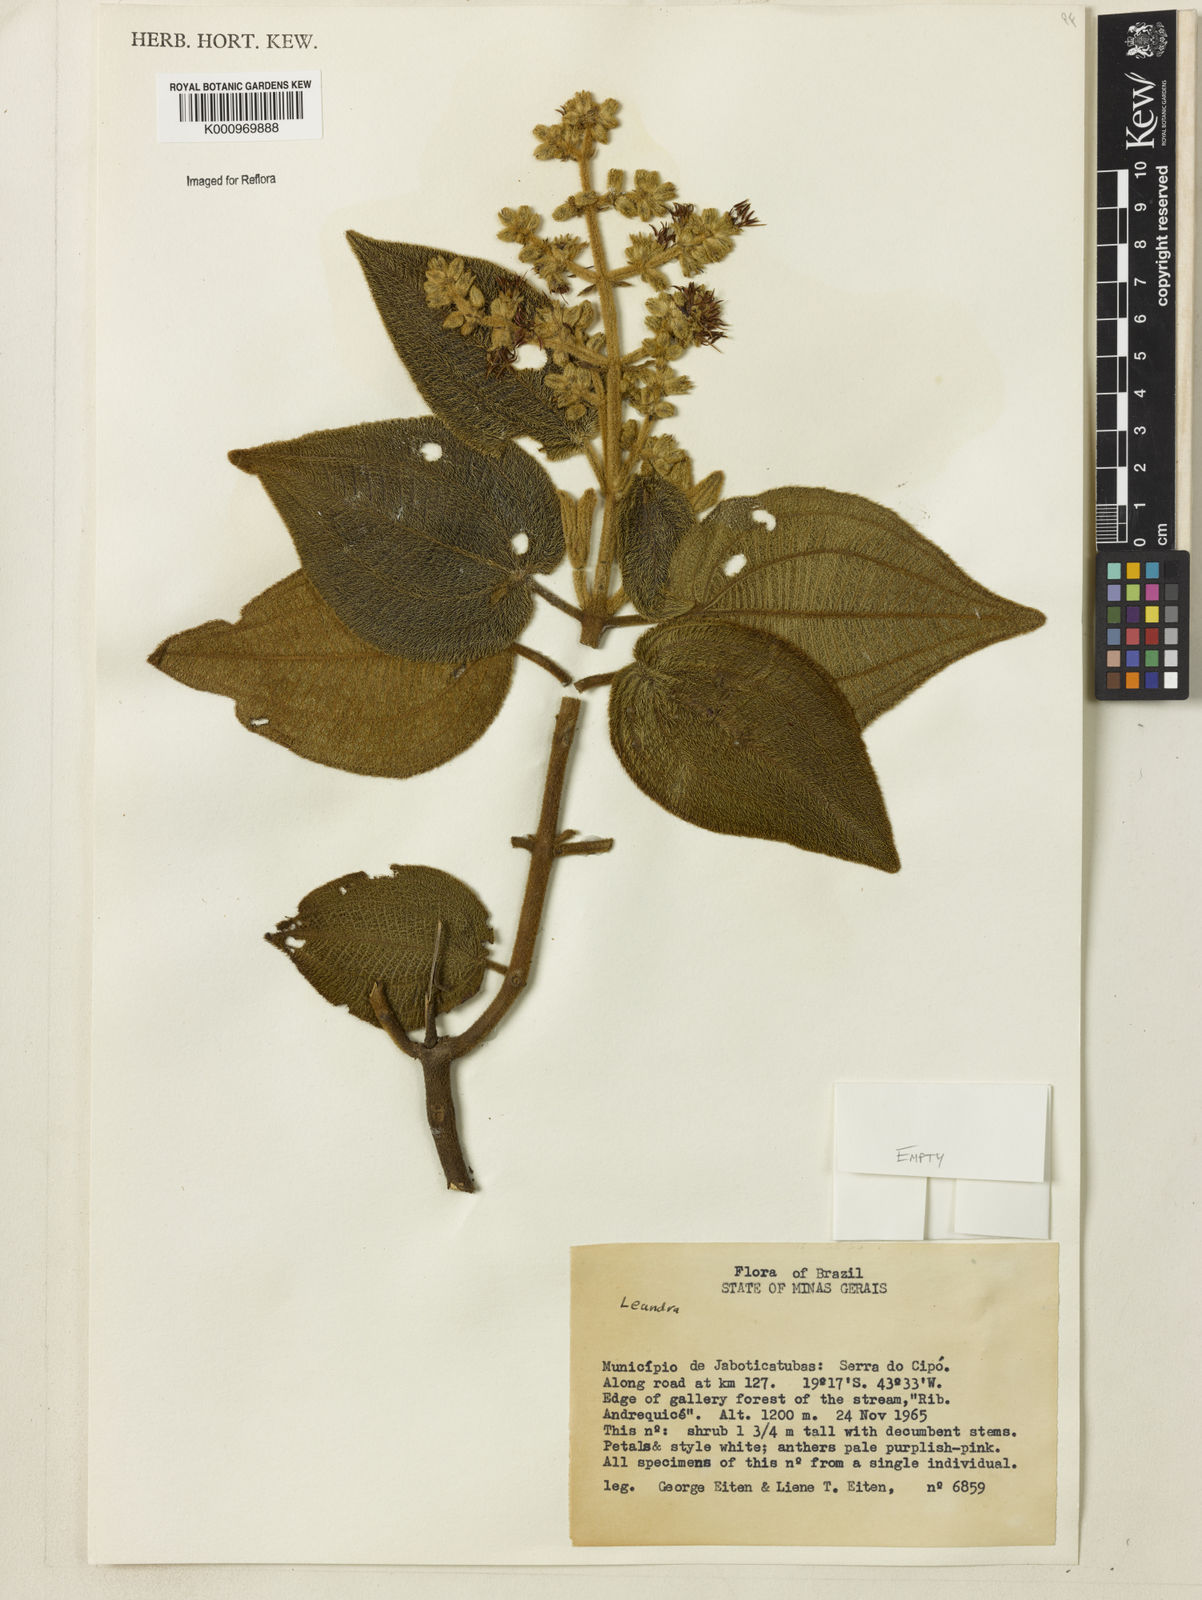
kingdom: Plantae
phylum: Tracheophyta
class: Magnoliopsida
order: Myrtales
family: Melastomataceae
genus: Miconia
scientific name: Miconia
